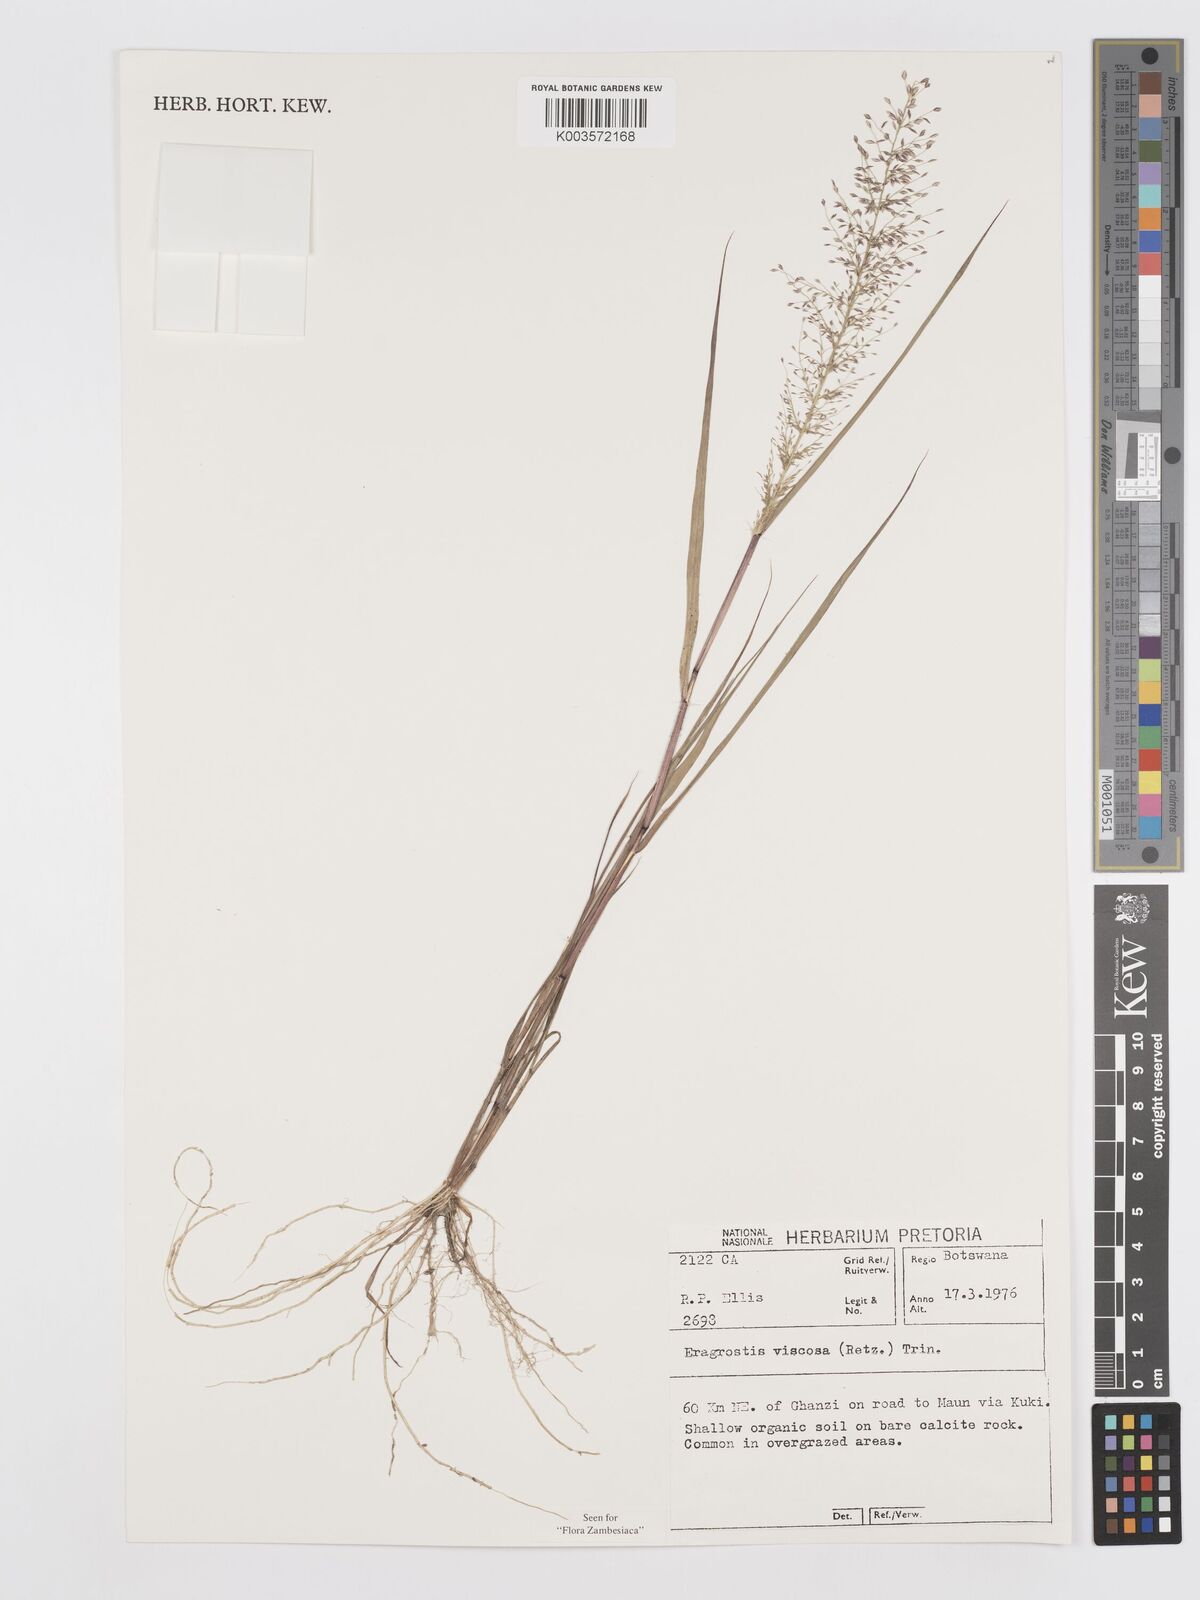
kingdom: Plantae
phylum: Tracheophyta
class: Liliopsida
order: Poales
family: Poaceae
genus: Eragrostis
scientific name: Eragrostis
